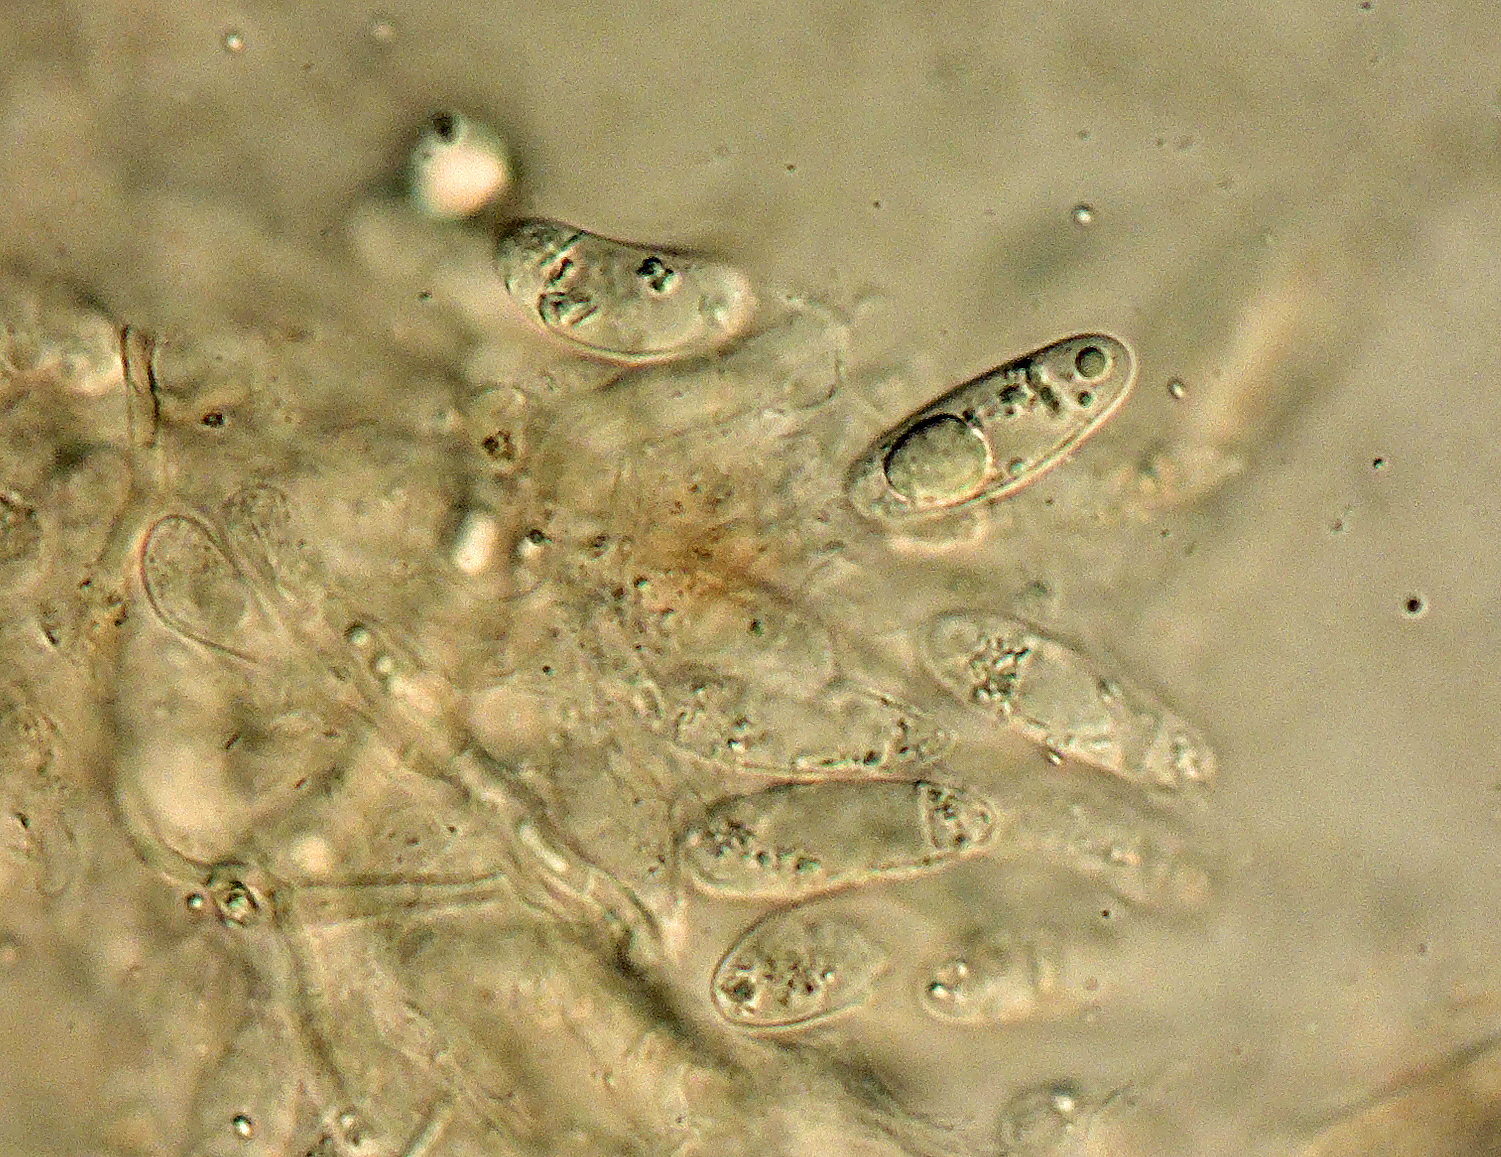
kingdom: Fungi
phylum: Ascomycota
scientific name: Ascomycota
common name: sæksvampe
